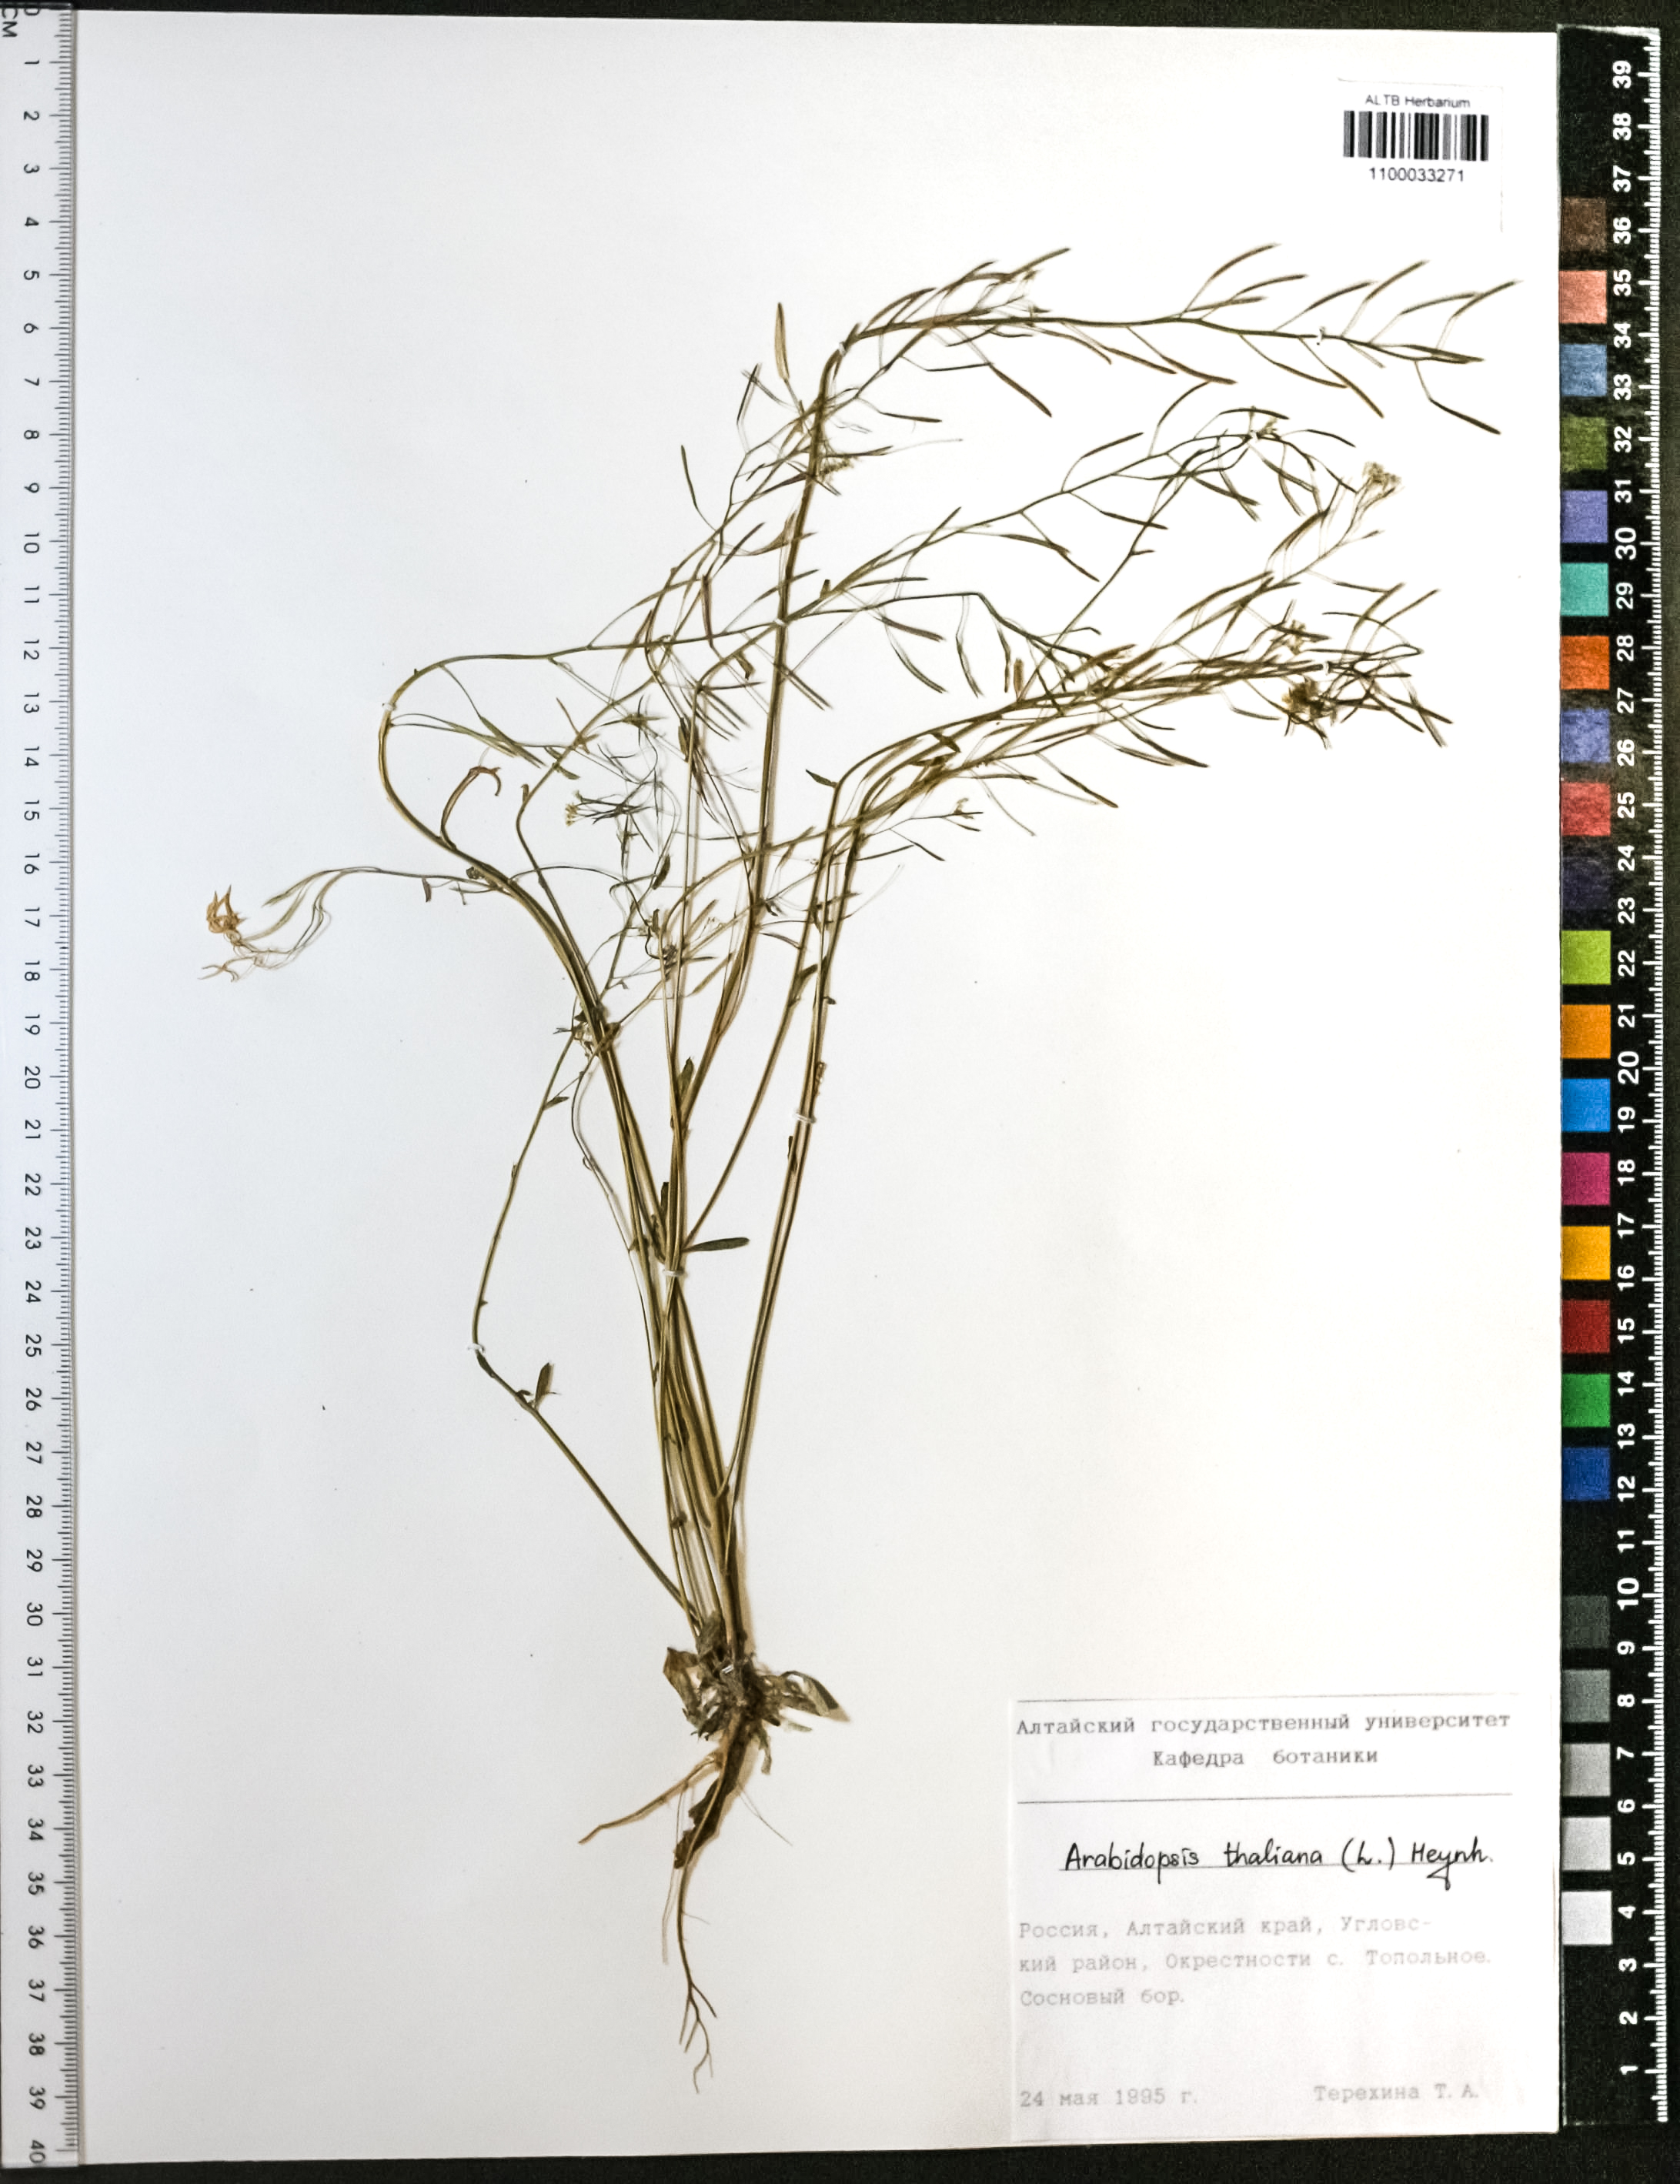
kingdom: Plantae
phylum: Tracheophyta
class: Magnoliopsida
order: Brassicales
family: Brassicaceae
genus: Arabidopsis
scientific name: Arabidopsis thaliana
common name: Thale cress
